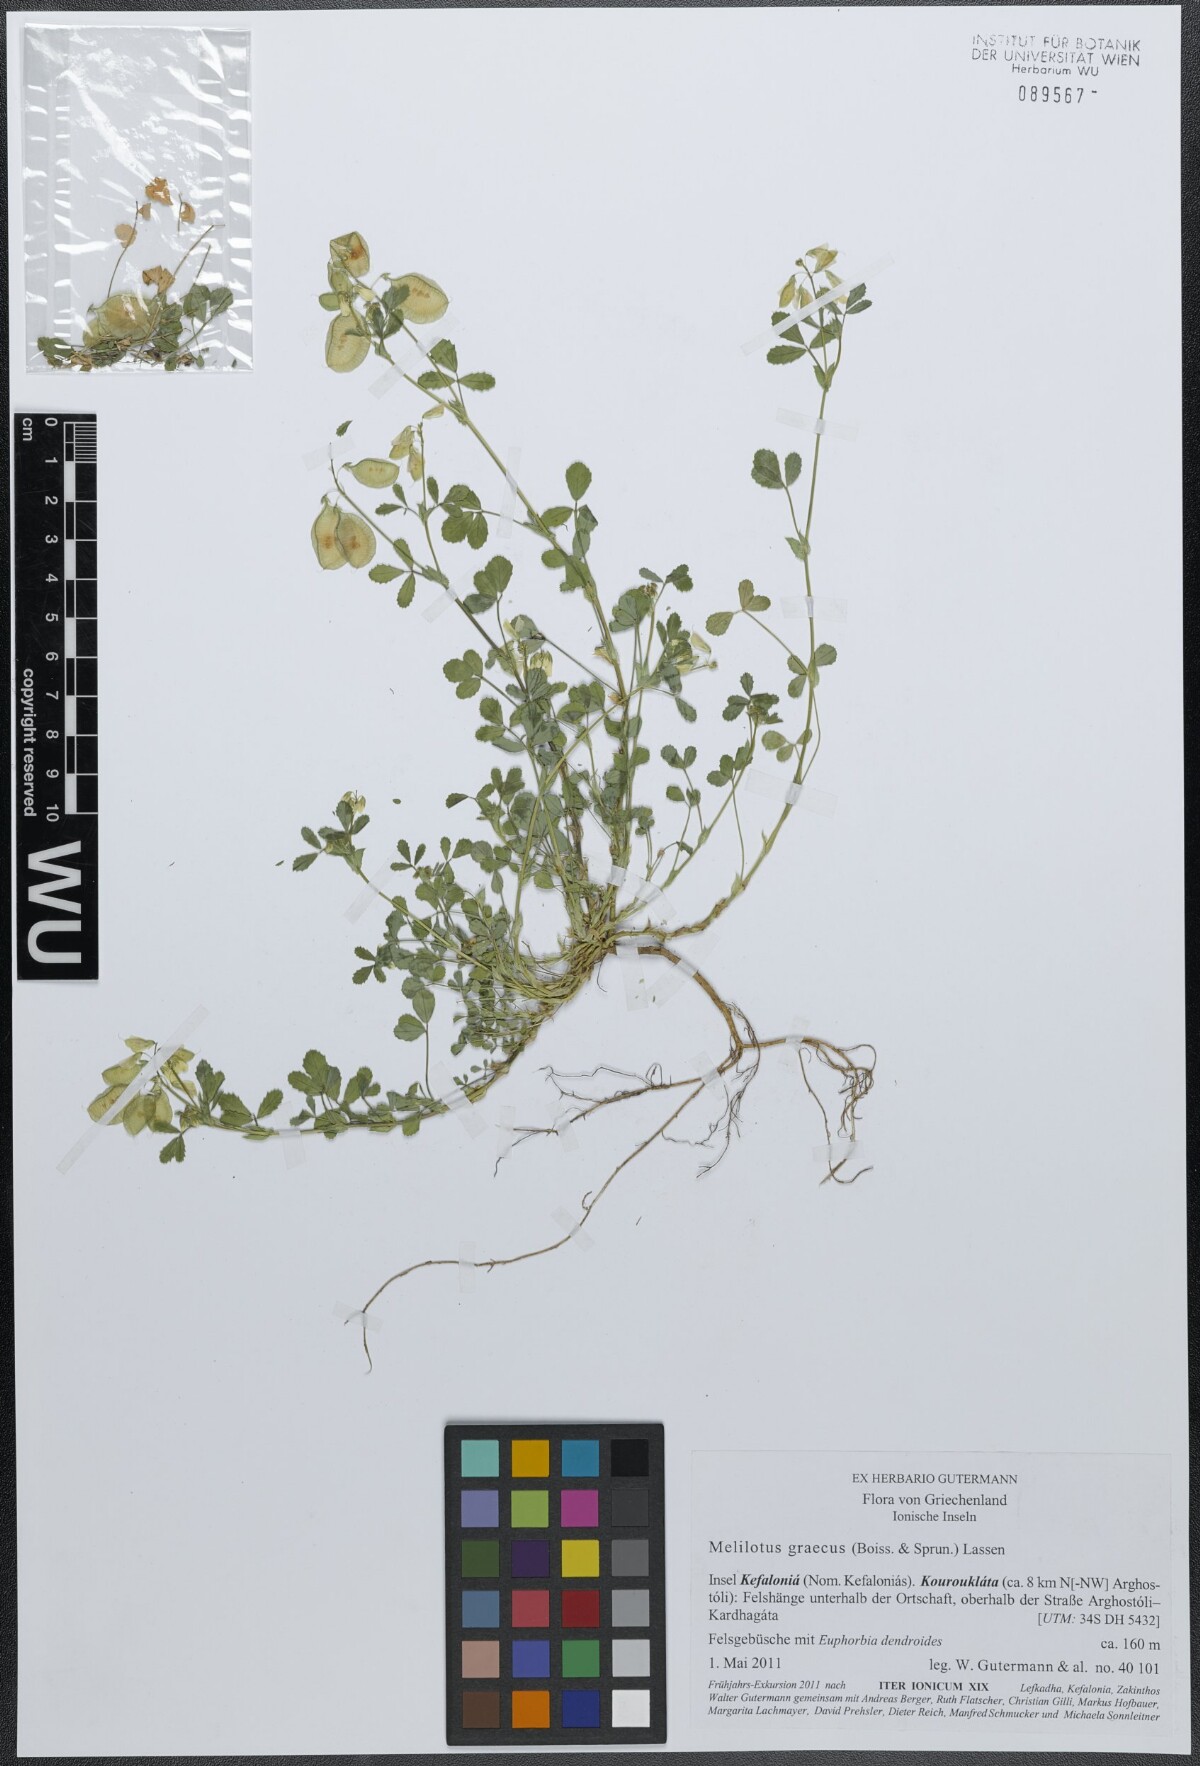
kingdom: Plantae
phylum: Tracheophyta
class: Magnoliopsida
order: Fabales
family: Fabaceae
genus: Trigonella
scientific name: Trigonella graeca
